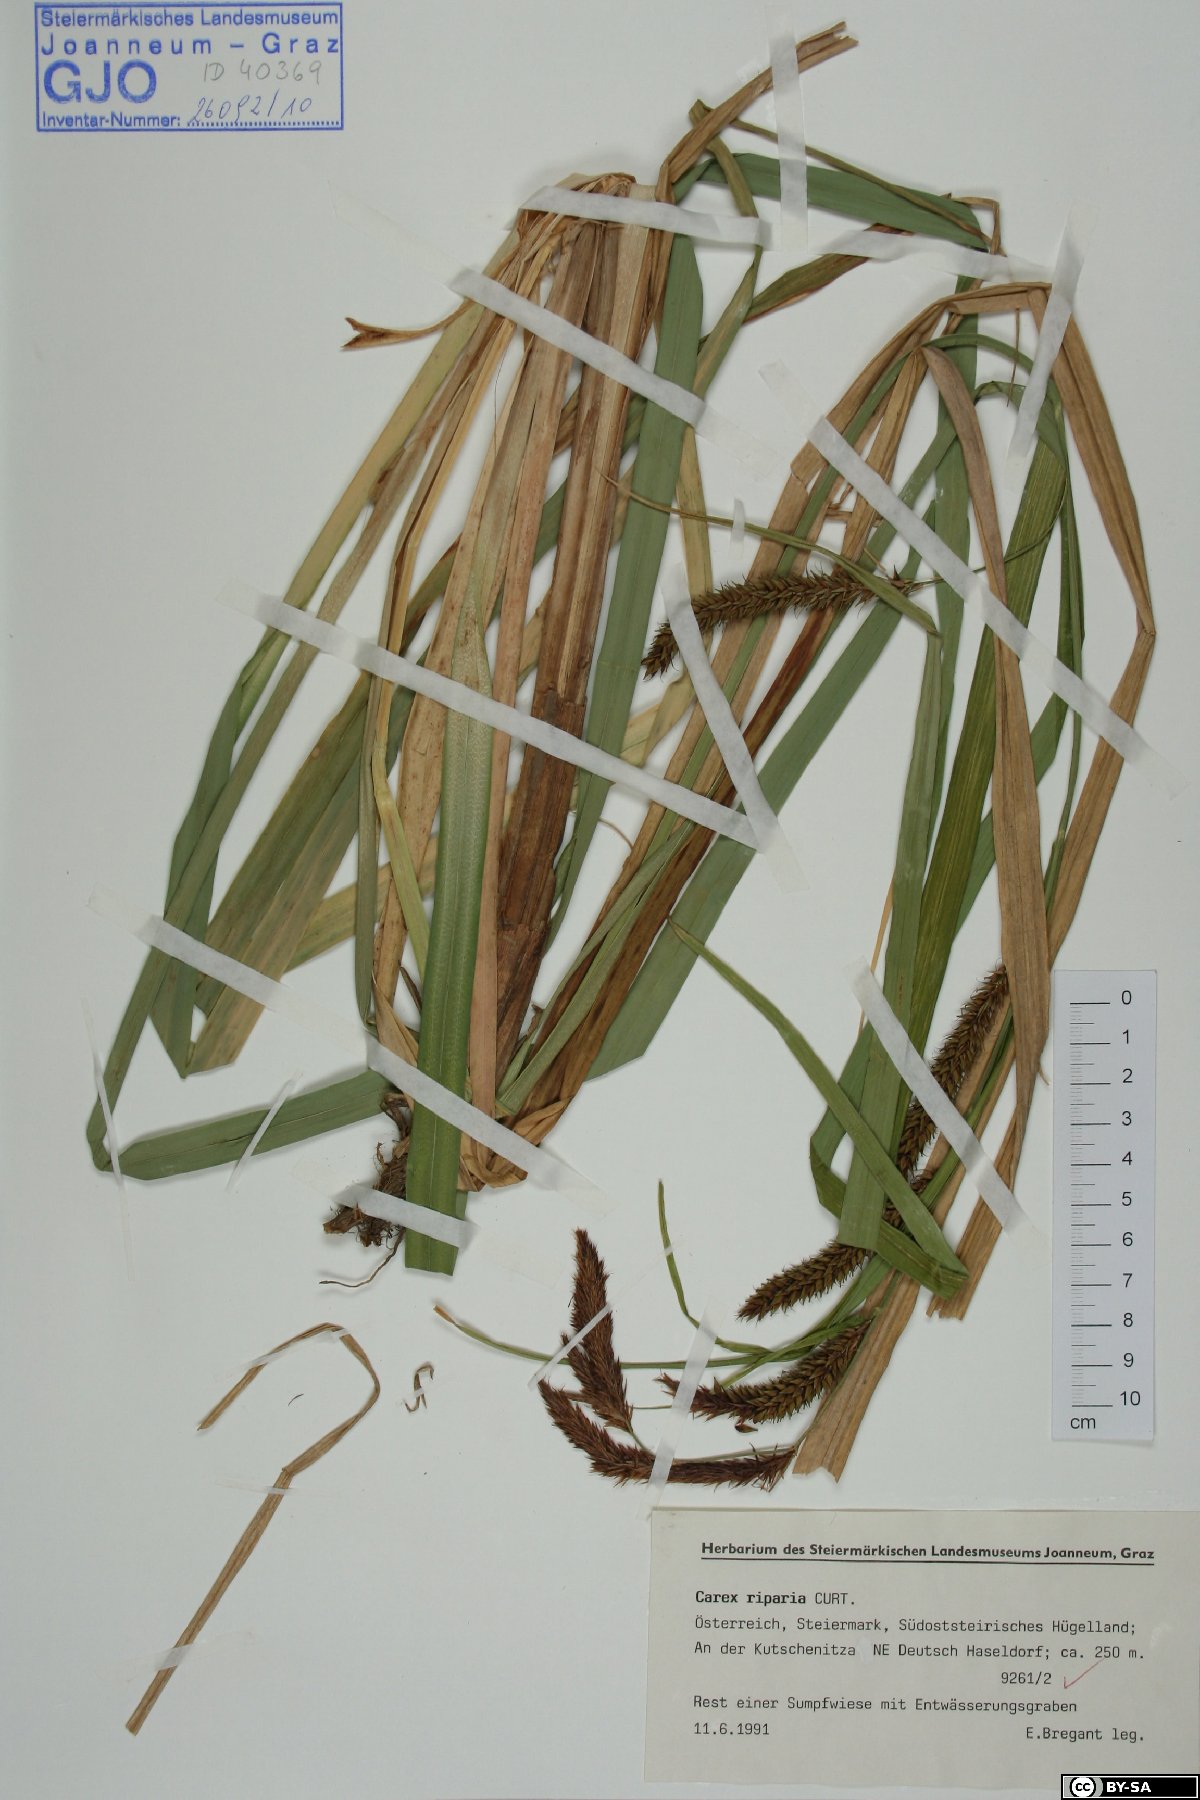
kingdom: Plantae
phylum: Tracheophyta
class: Liliopsida
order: Poales
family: Cyperaceae
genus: Carex
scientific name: Carex riparia
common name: Greater pond-sedge
